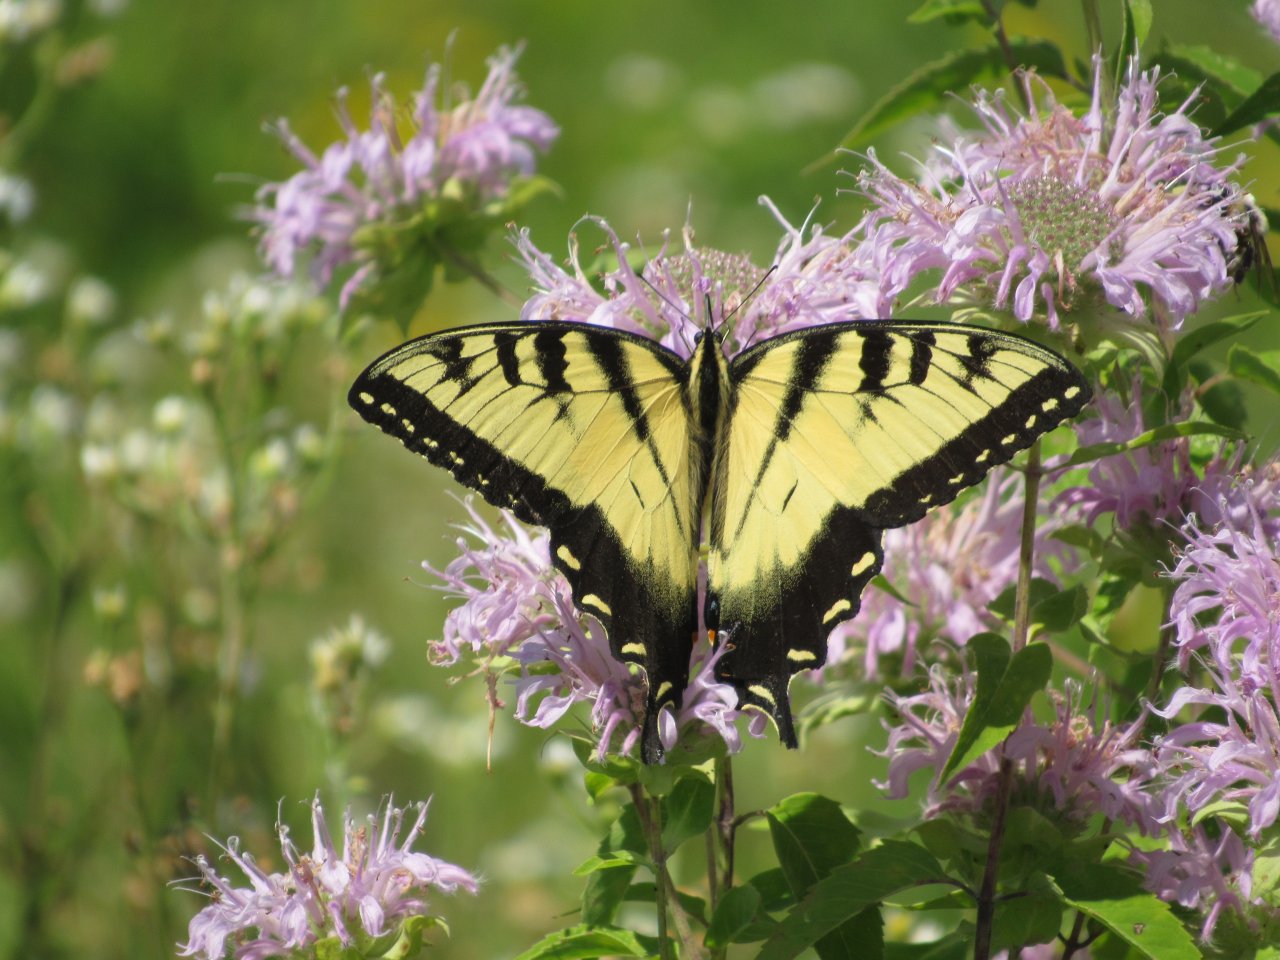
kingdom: Animalia
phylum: Arthropoda
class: Insecta
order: Lepidoptera
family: Papilionidae
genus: Pterourus
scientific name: Pterourus glaucus
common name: Eastern Tiger Swallowtail
